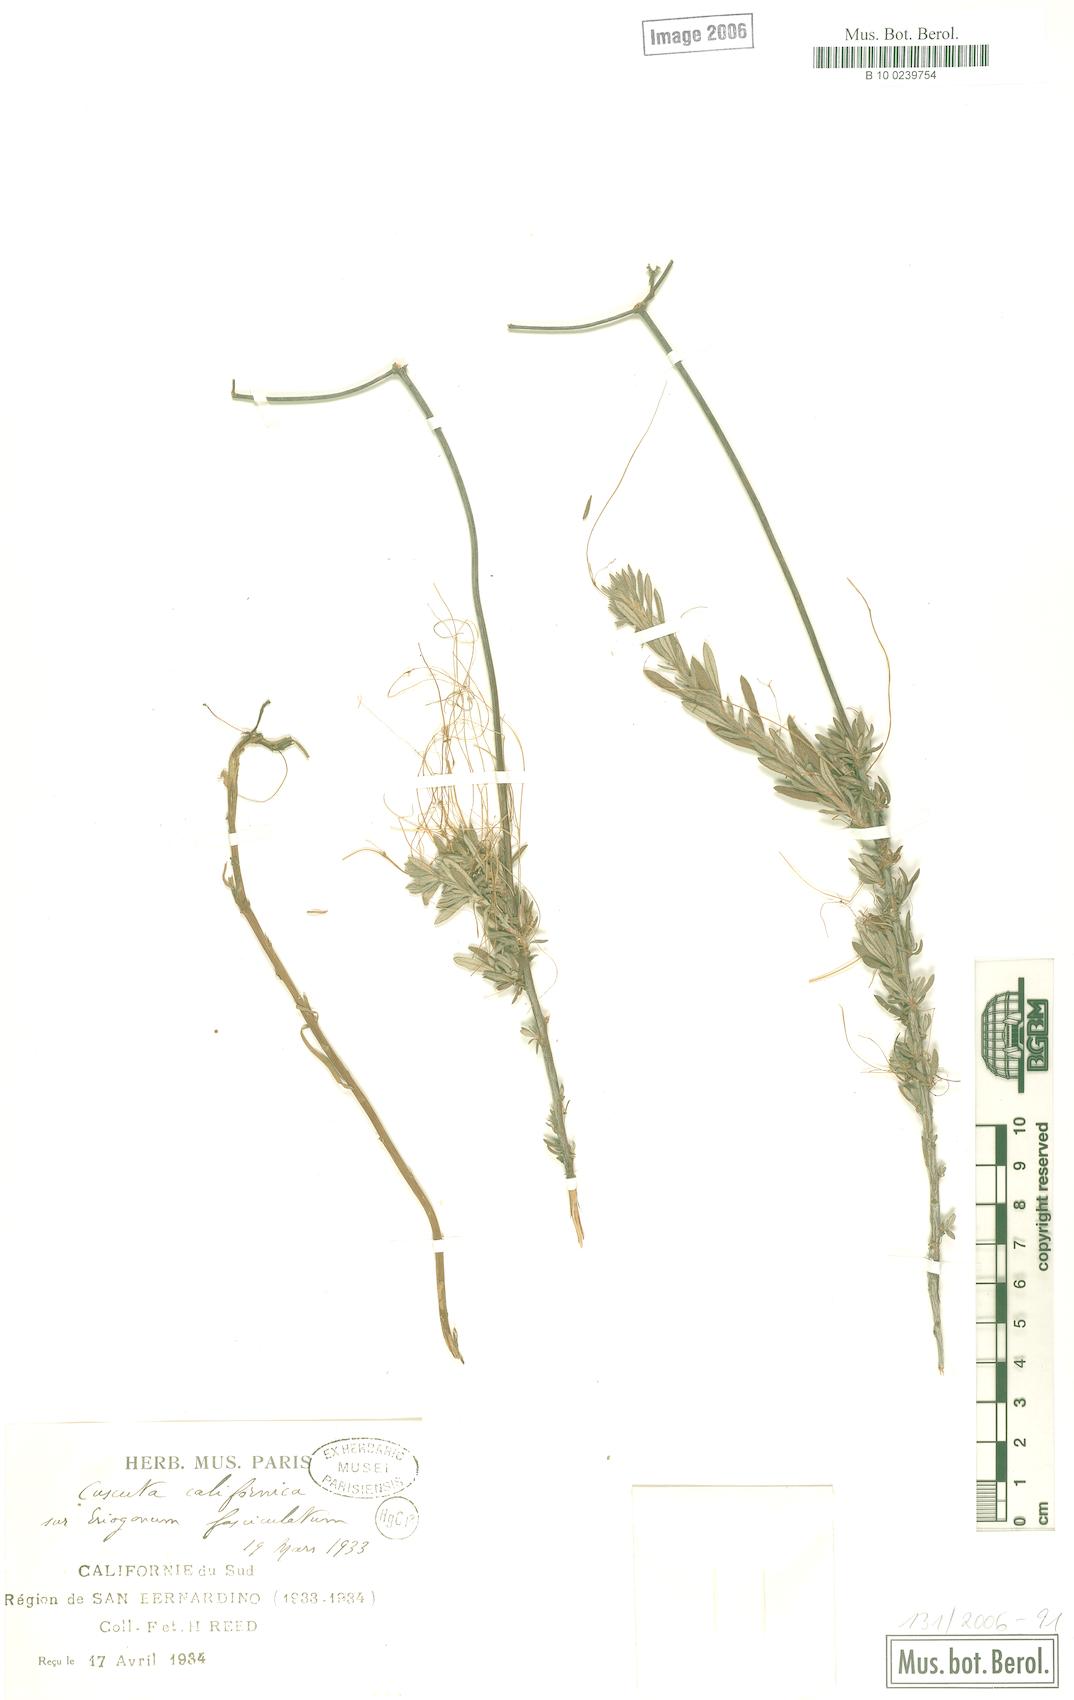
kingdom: Plantae
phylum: Tracheophyta
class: Magnoliopsida
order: Solanales
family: Convolvulaceae
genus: Cuscuta
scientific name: Cuscuta californica
